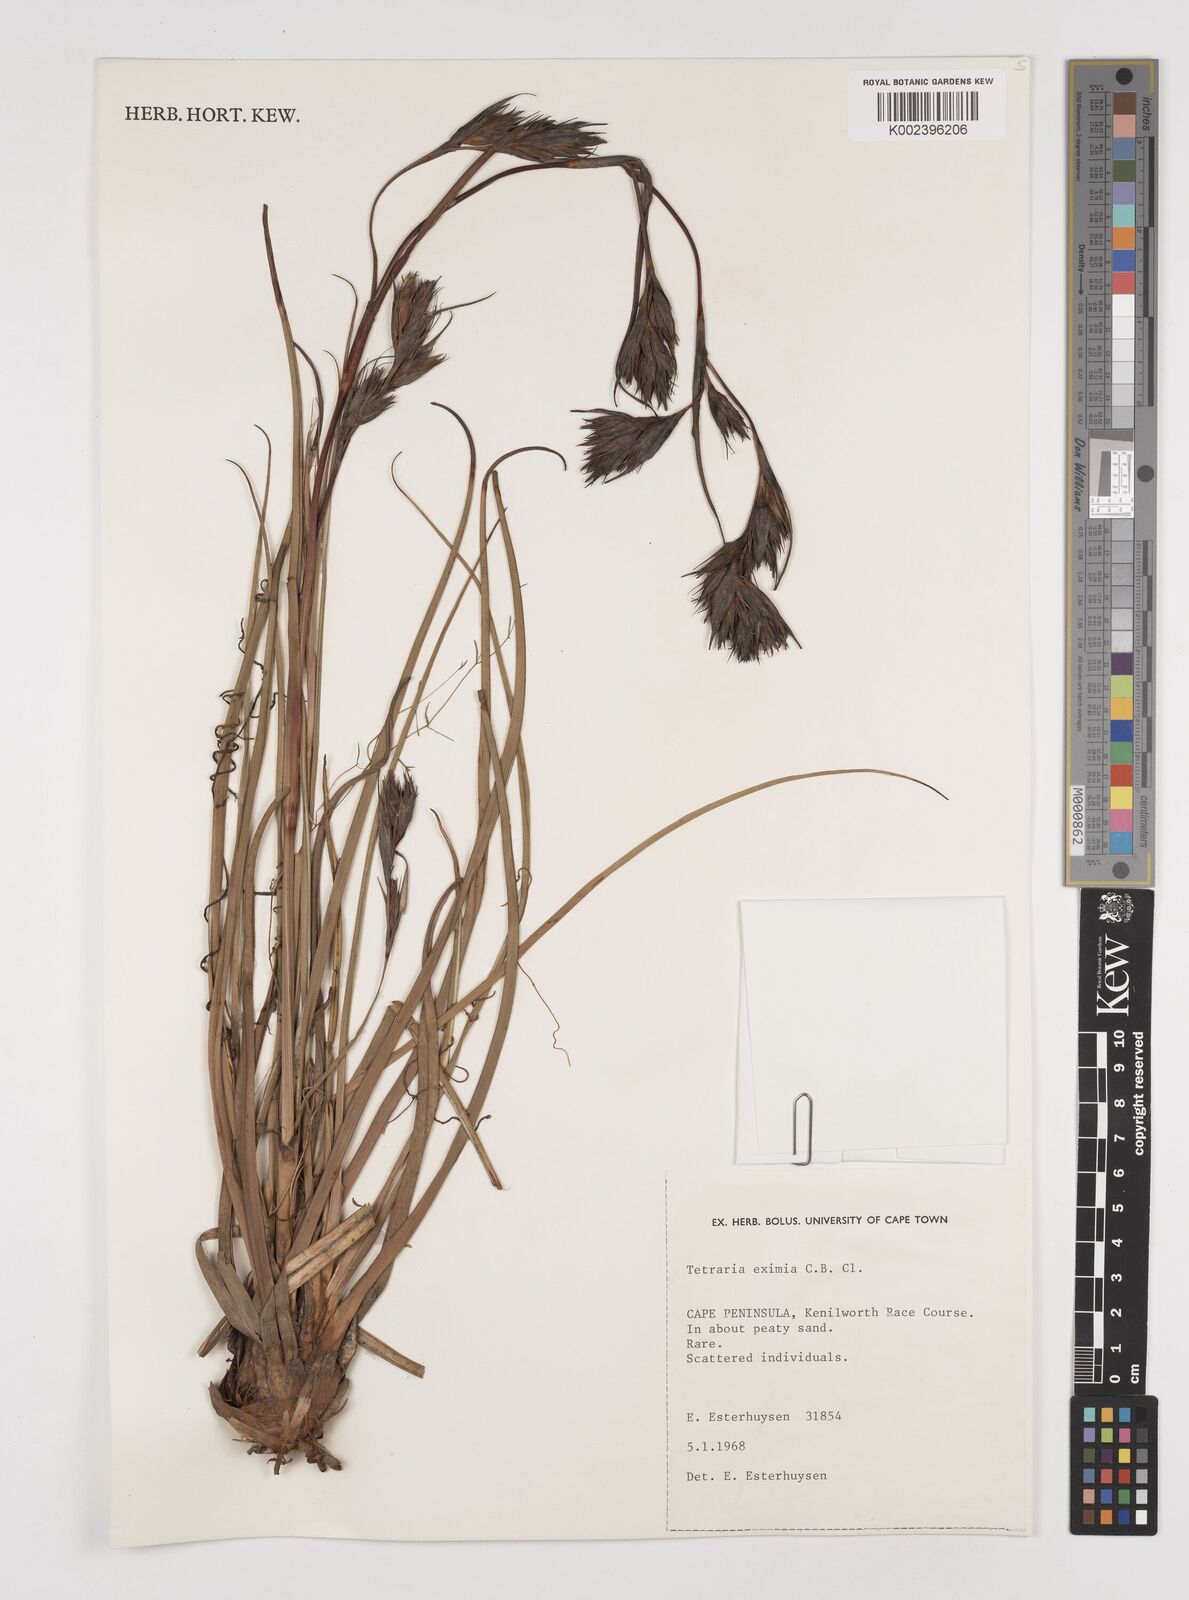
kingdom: Plantae
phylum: Tracheophyta
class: Liliopsida
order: Poales
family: Cyperaceae
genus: Tetraria
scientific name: Tetraria eximia
